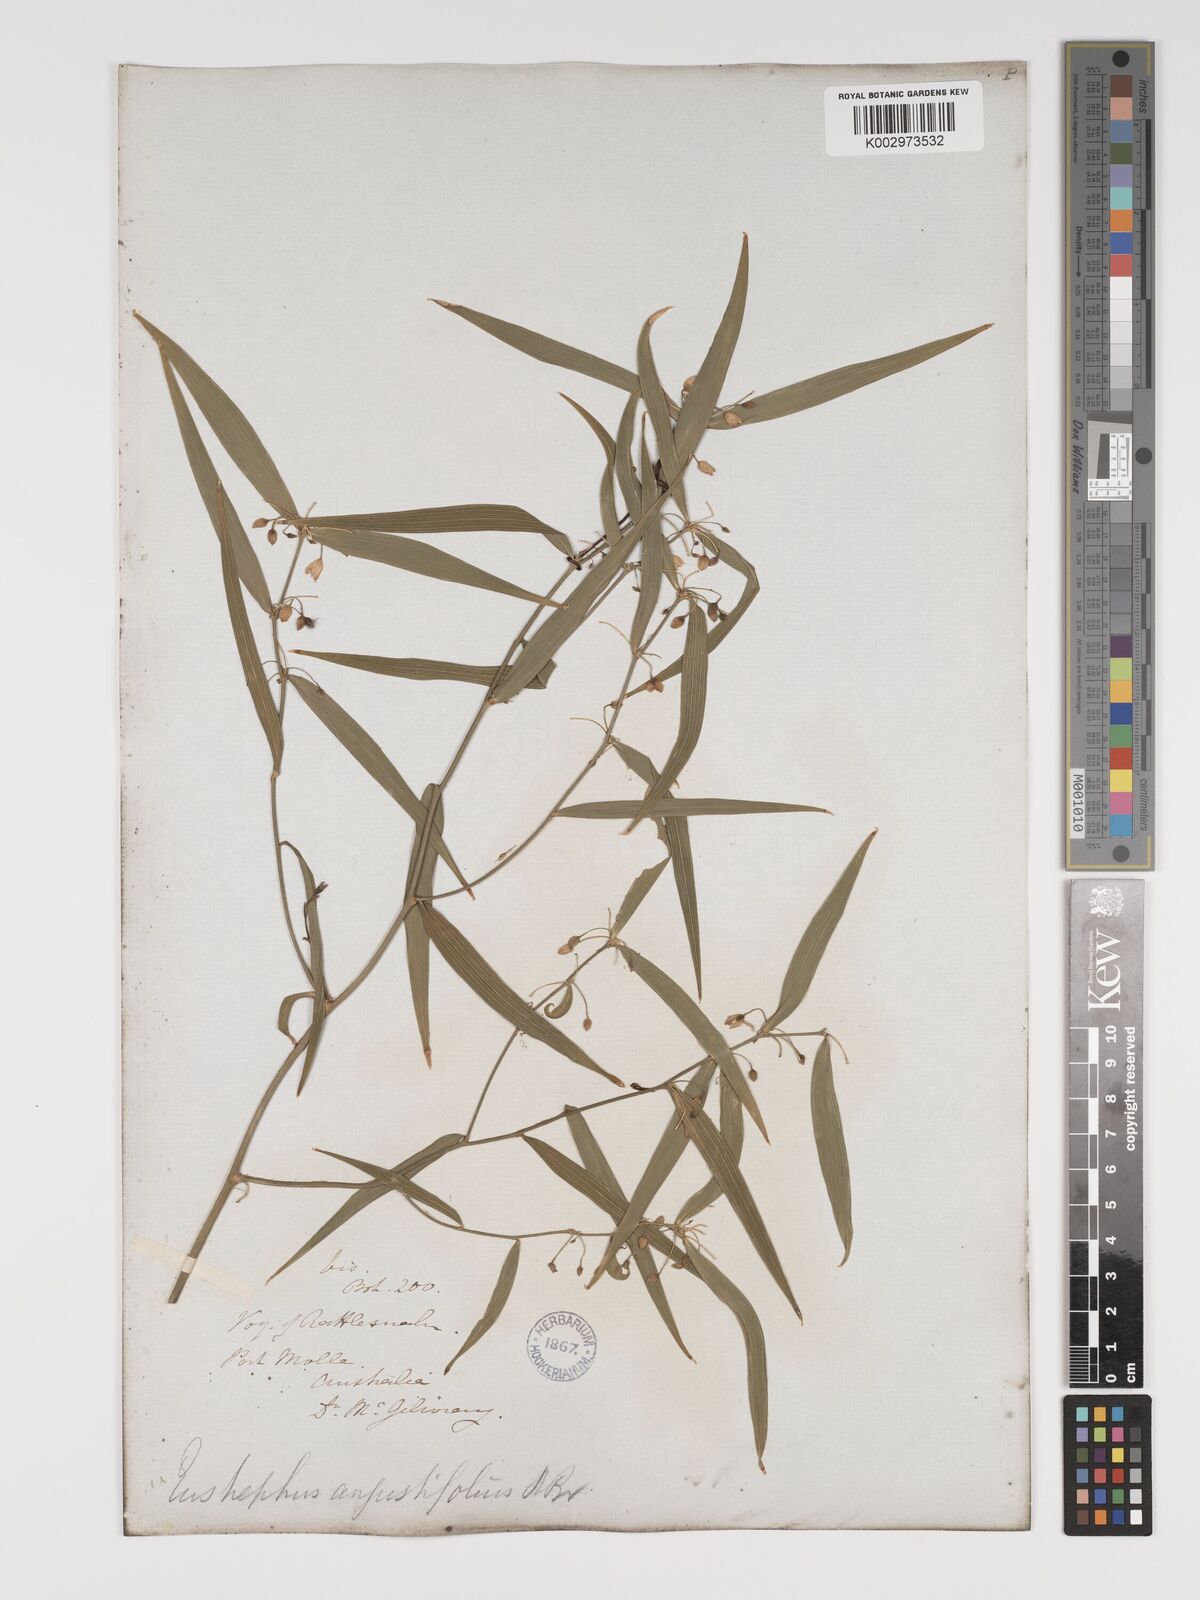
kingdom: Plantae
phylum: Tracheophyta
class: Liliopsida
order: Asparagales
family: Asparagaceae
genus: Eustrephus
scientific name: Eustrephus latifolius
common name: Orangevine
